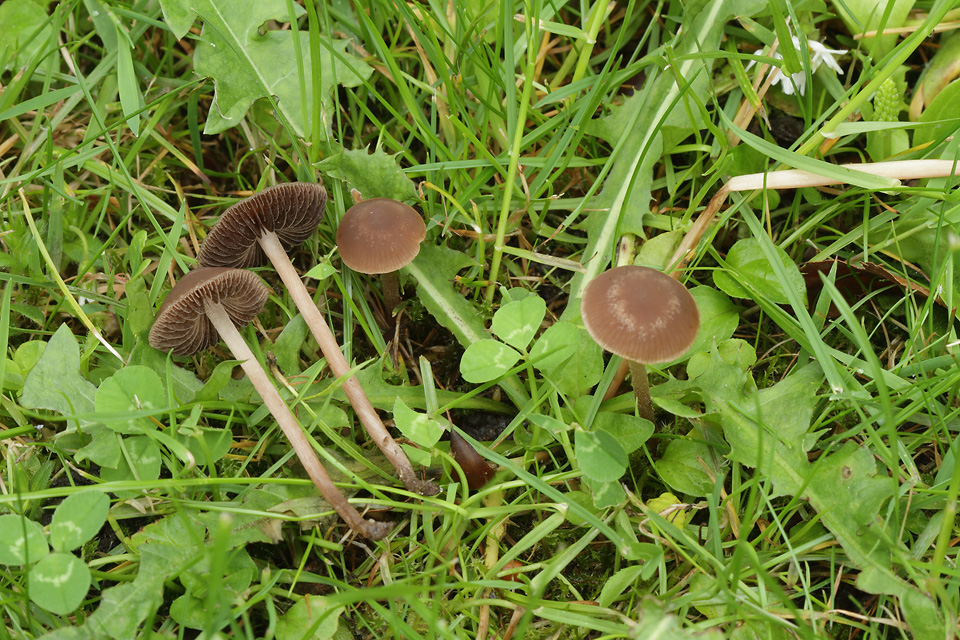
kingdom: Fungi
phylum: Basidiomycota
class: Agaricomycetes
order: Agaricales
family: Bolbitiaceae
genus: Panaeolina
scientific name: Panaeolina foenisecii
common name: høslætsvamp
